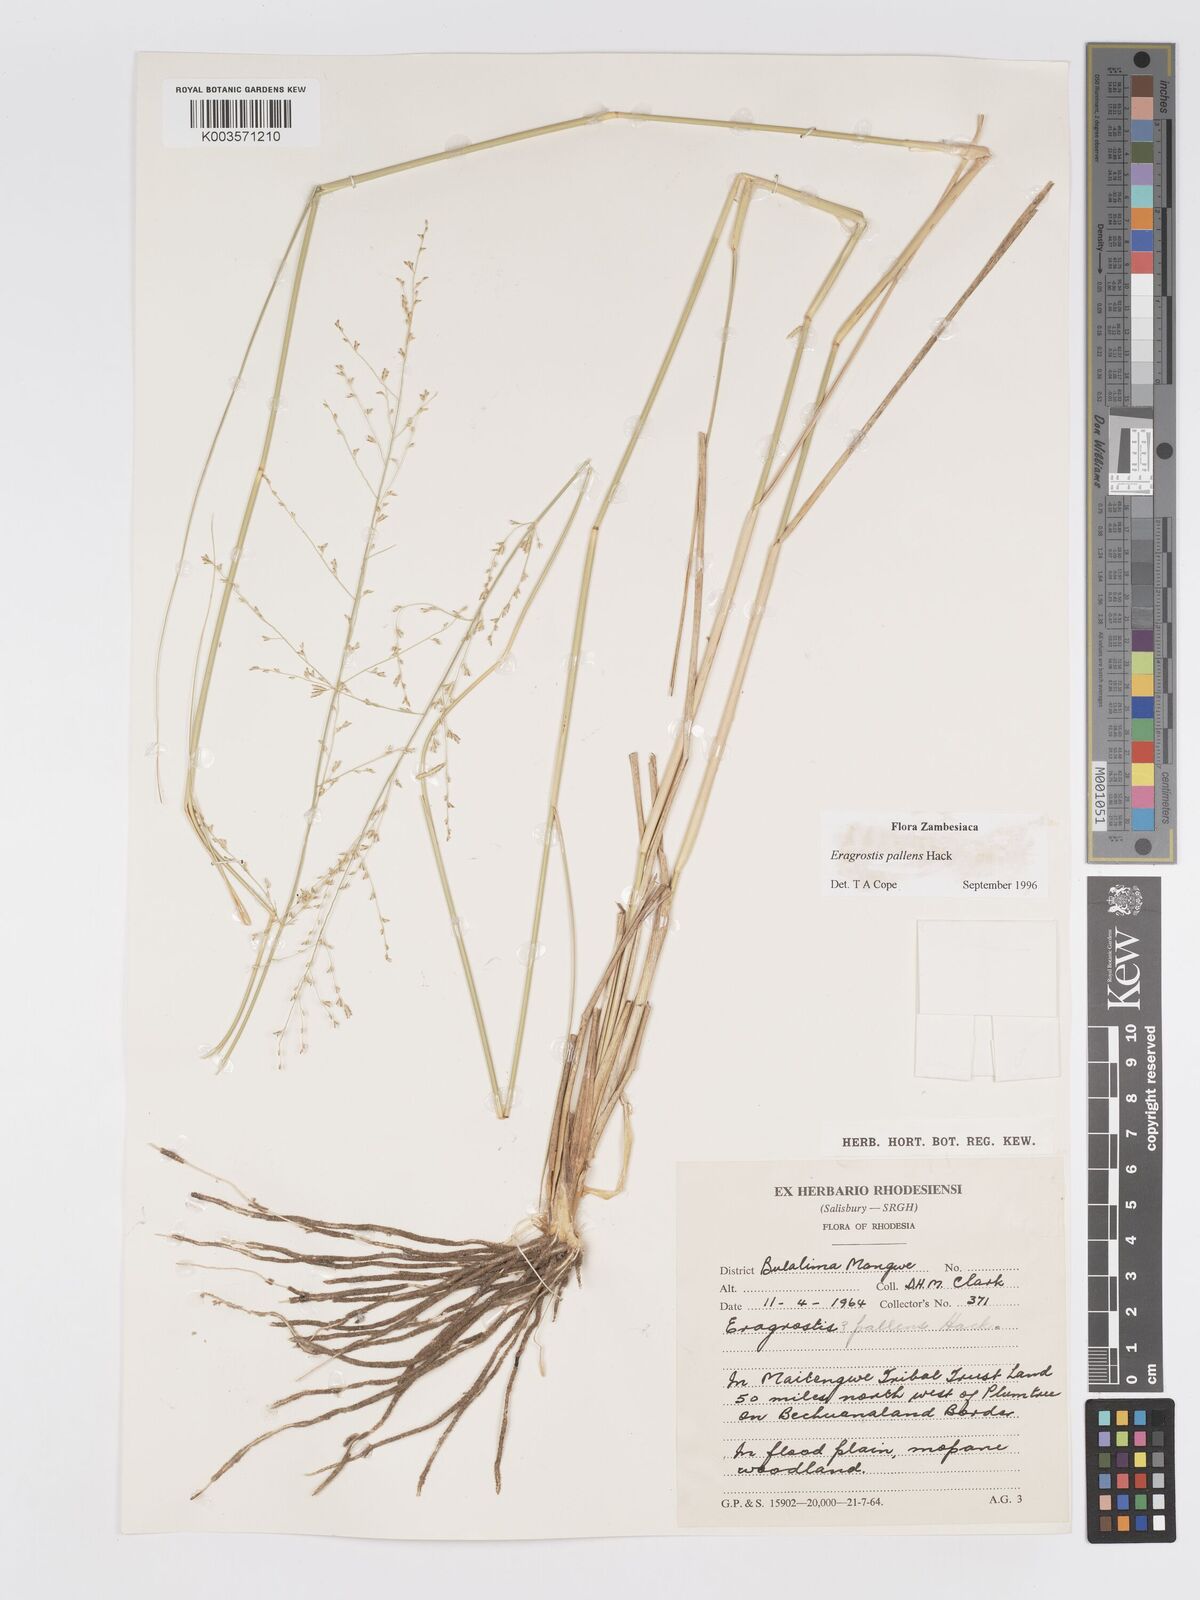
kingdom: Plantae
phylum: Tracheophyta
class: Liliopsida
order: Poales
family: Poaceae
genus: Eragrostis
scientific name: Eragrostis pallens
